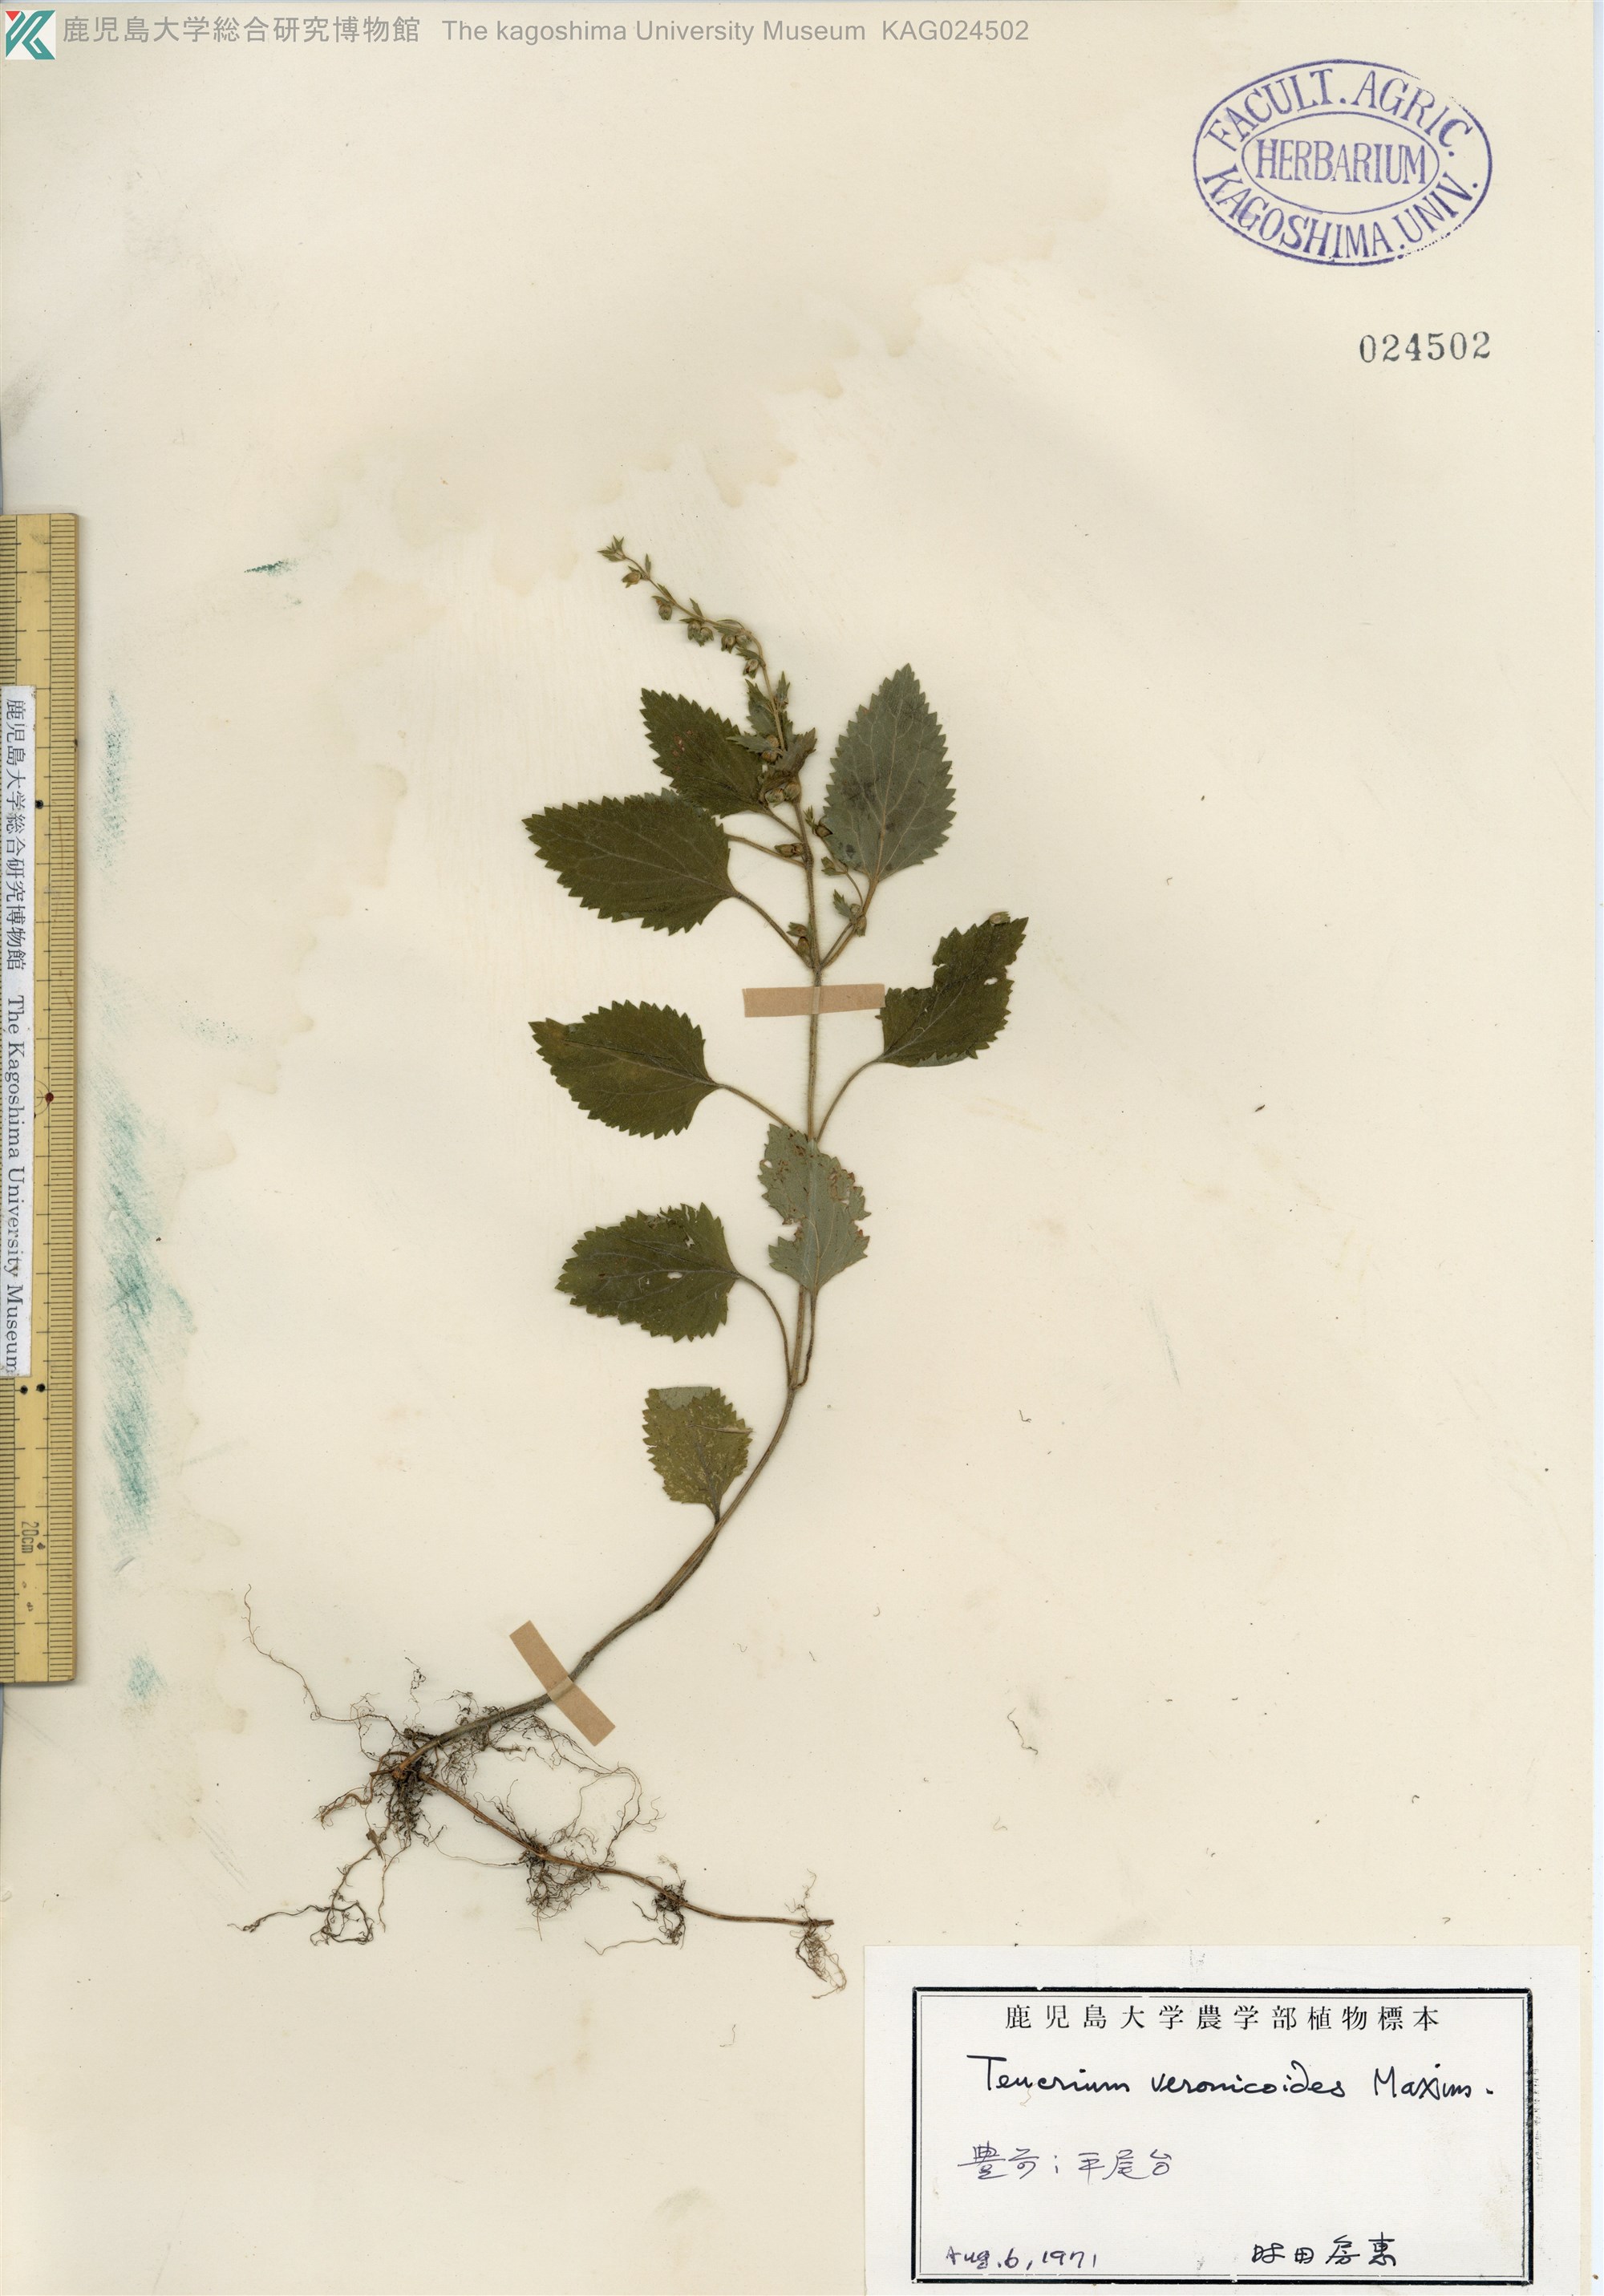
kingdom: Plantae
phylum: Tracheophyta
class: Magnoliopsida
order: Lamiales
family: Lamiaceae
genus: Teucrium
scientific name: Teucrium veronicoides
